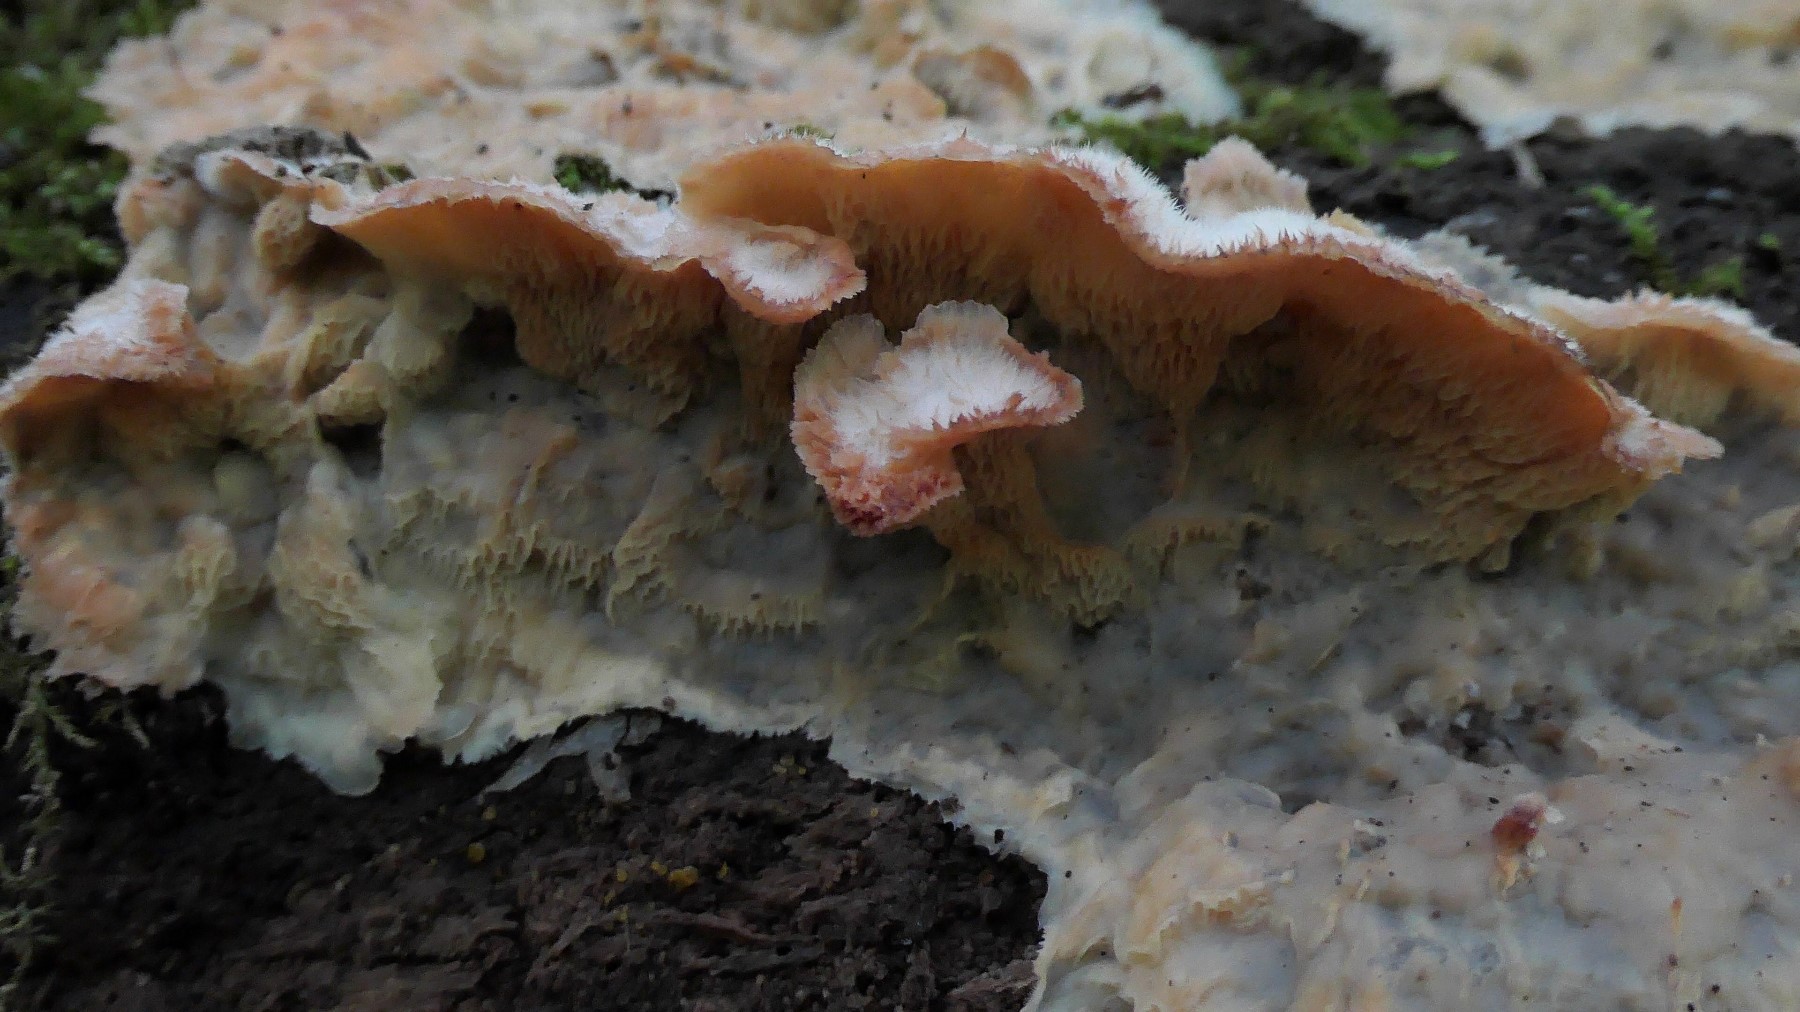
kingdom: Fungi
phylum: Basidiomycota
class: Agaricomycetes
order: Polyporales
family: Meruliaceae
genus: Phlebia
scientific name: Phlebia tremellosa
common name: bævrende åresvamp
